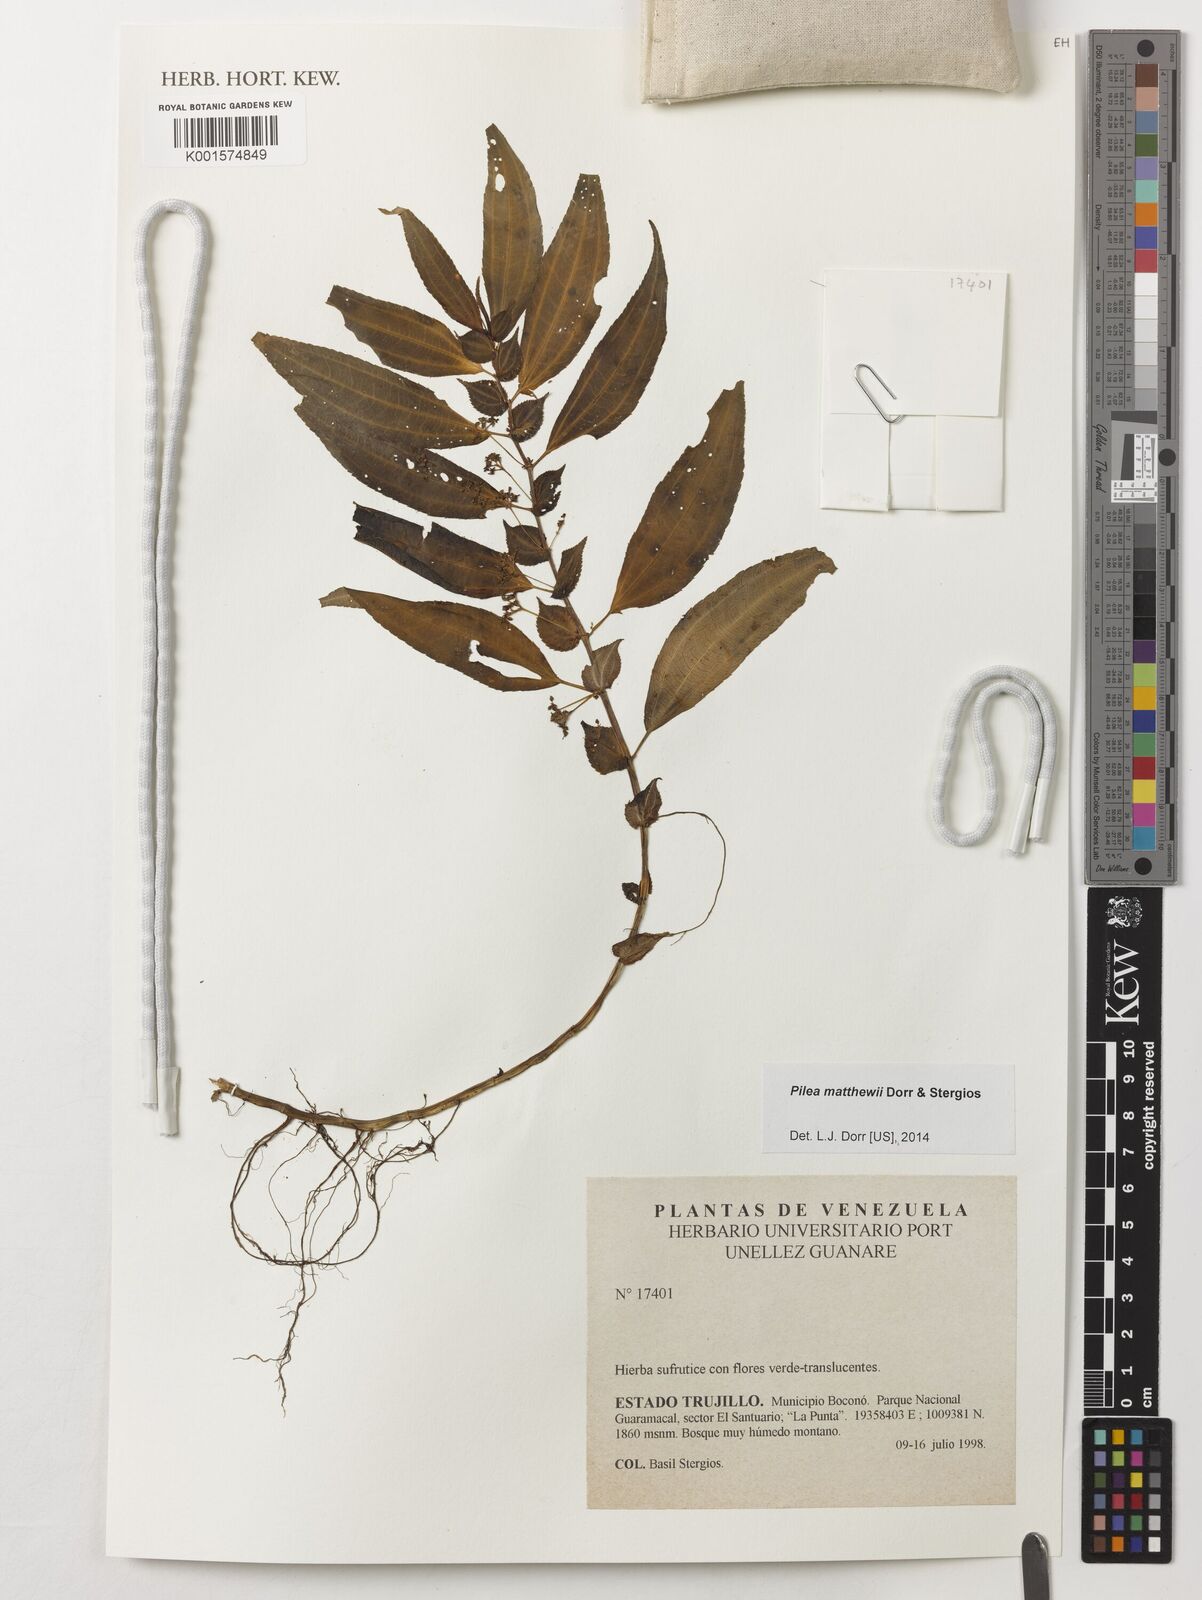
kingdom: Plantae
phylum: Tracheophyta
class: Magnoliopsida
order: Rosales
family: Urticaceae
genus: Pilea
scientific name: Pilea matthewii
